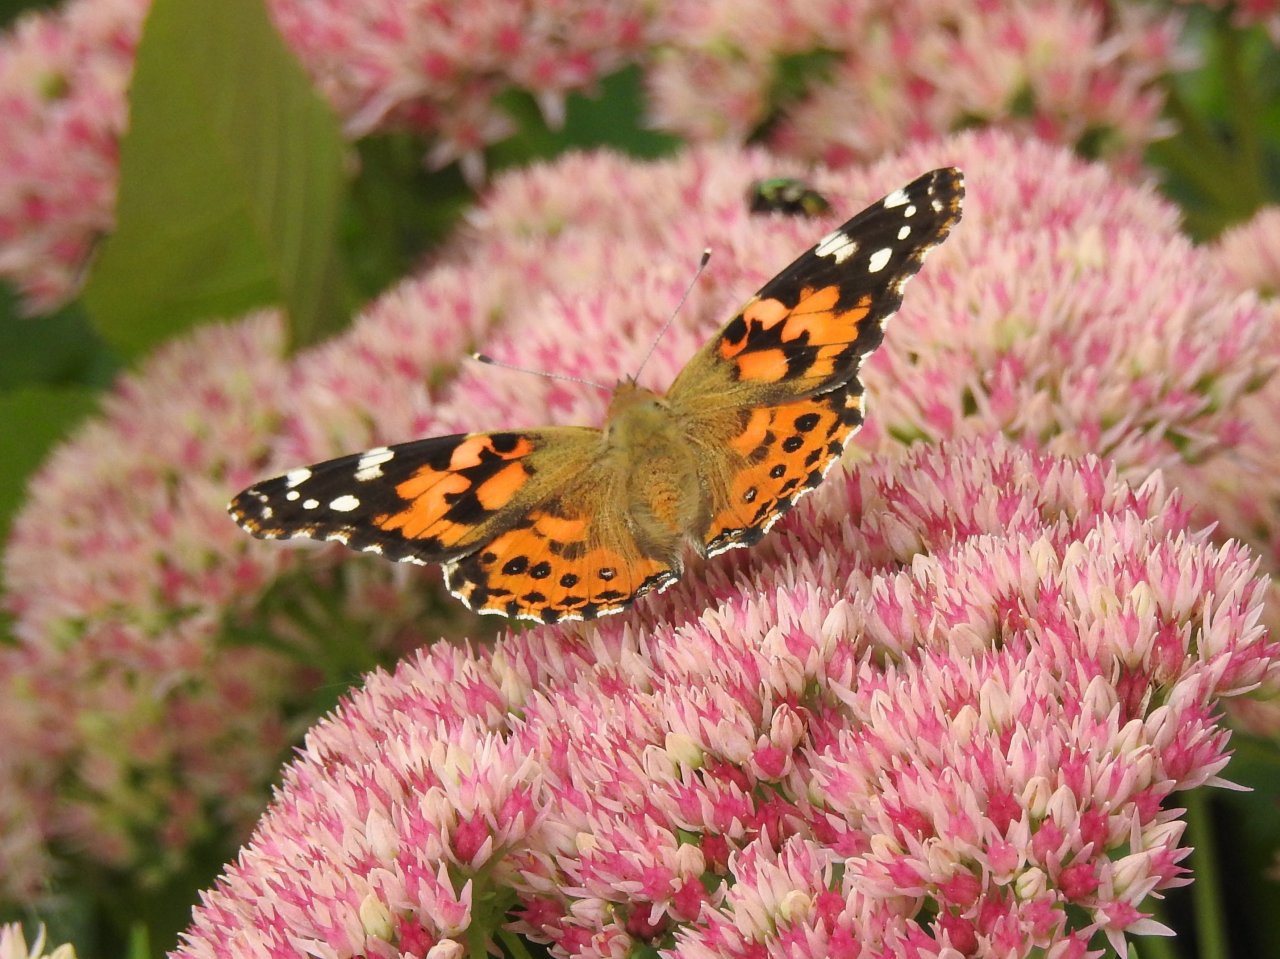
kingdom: Animalia
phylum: Arthropoda
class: Insecta
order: Lepidoptera
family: Nymphalidae
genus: Vanessa
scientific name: Vanessa cardui
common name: Painted Lady
